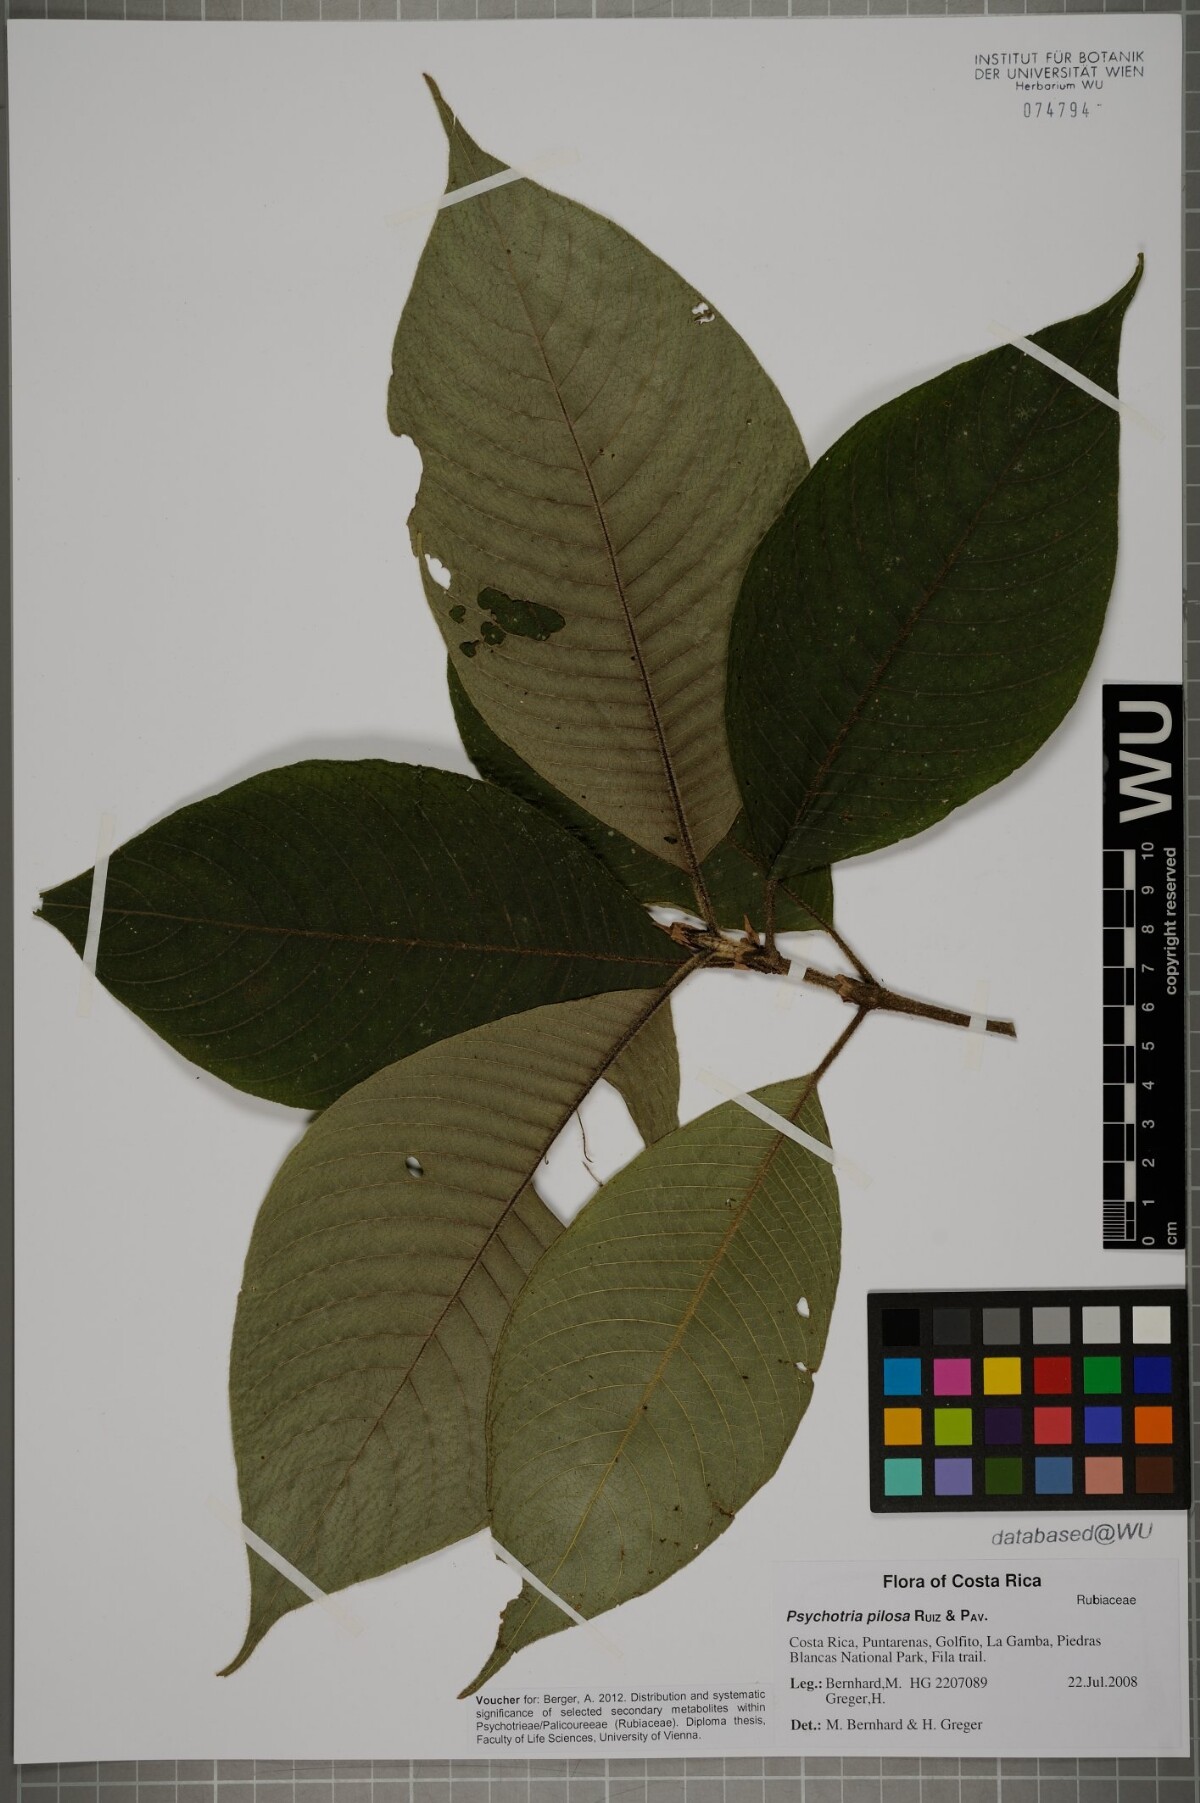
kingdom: Plantae
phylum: Tracheophyta
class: Magnoliopsida
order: Gentianales
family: Rubiaceae
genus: Palicourea
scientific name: Palicourea pilosa
